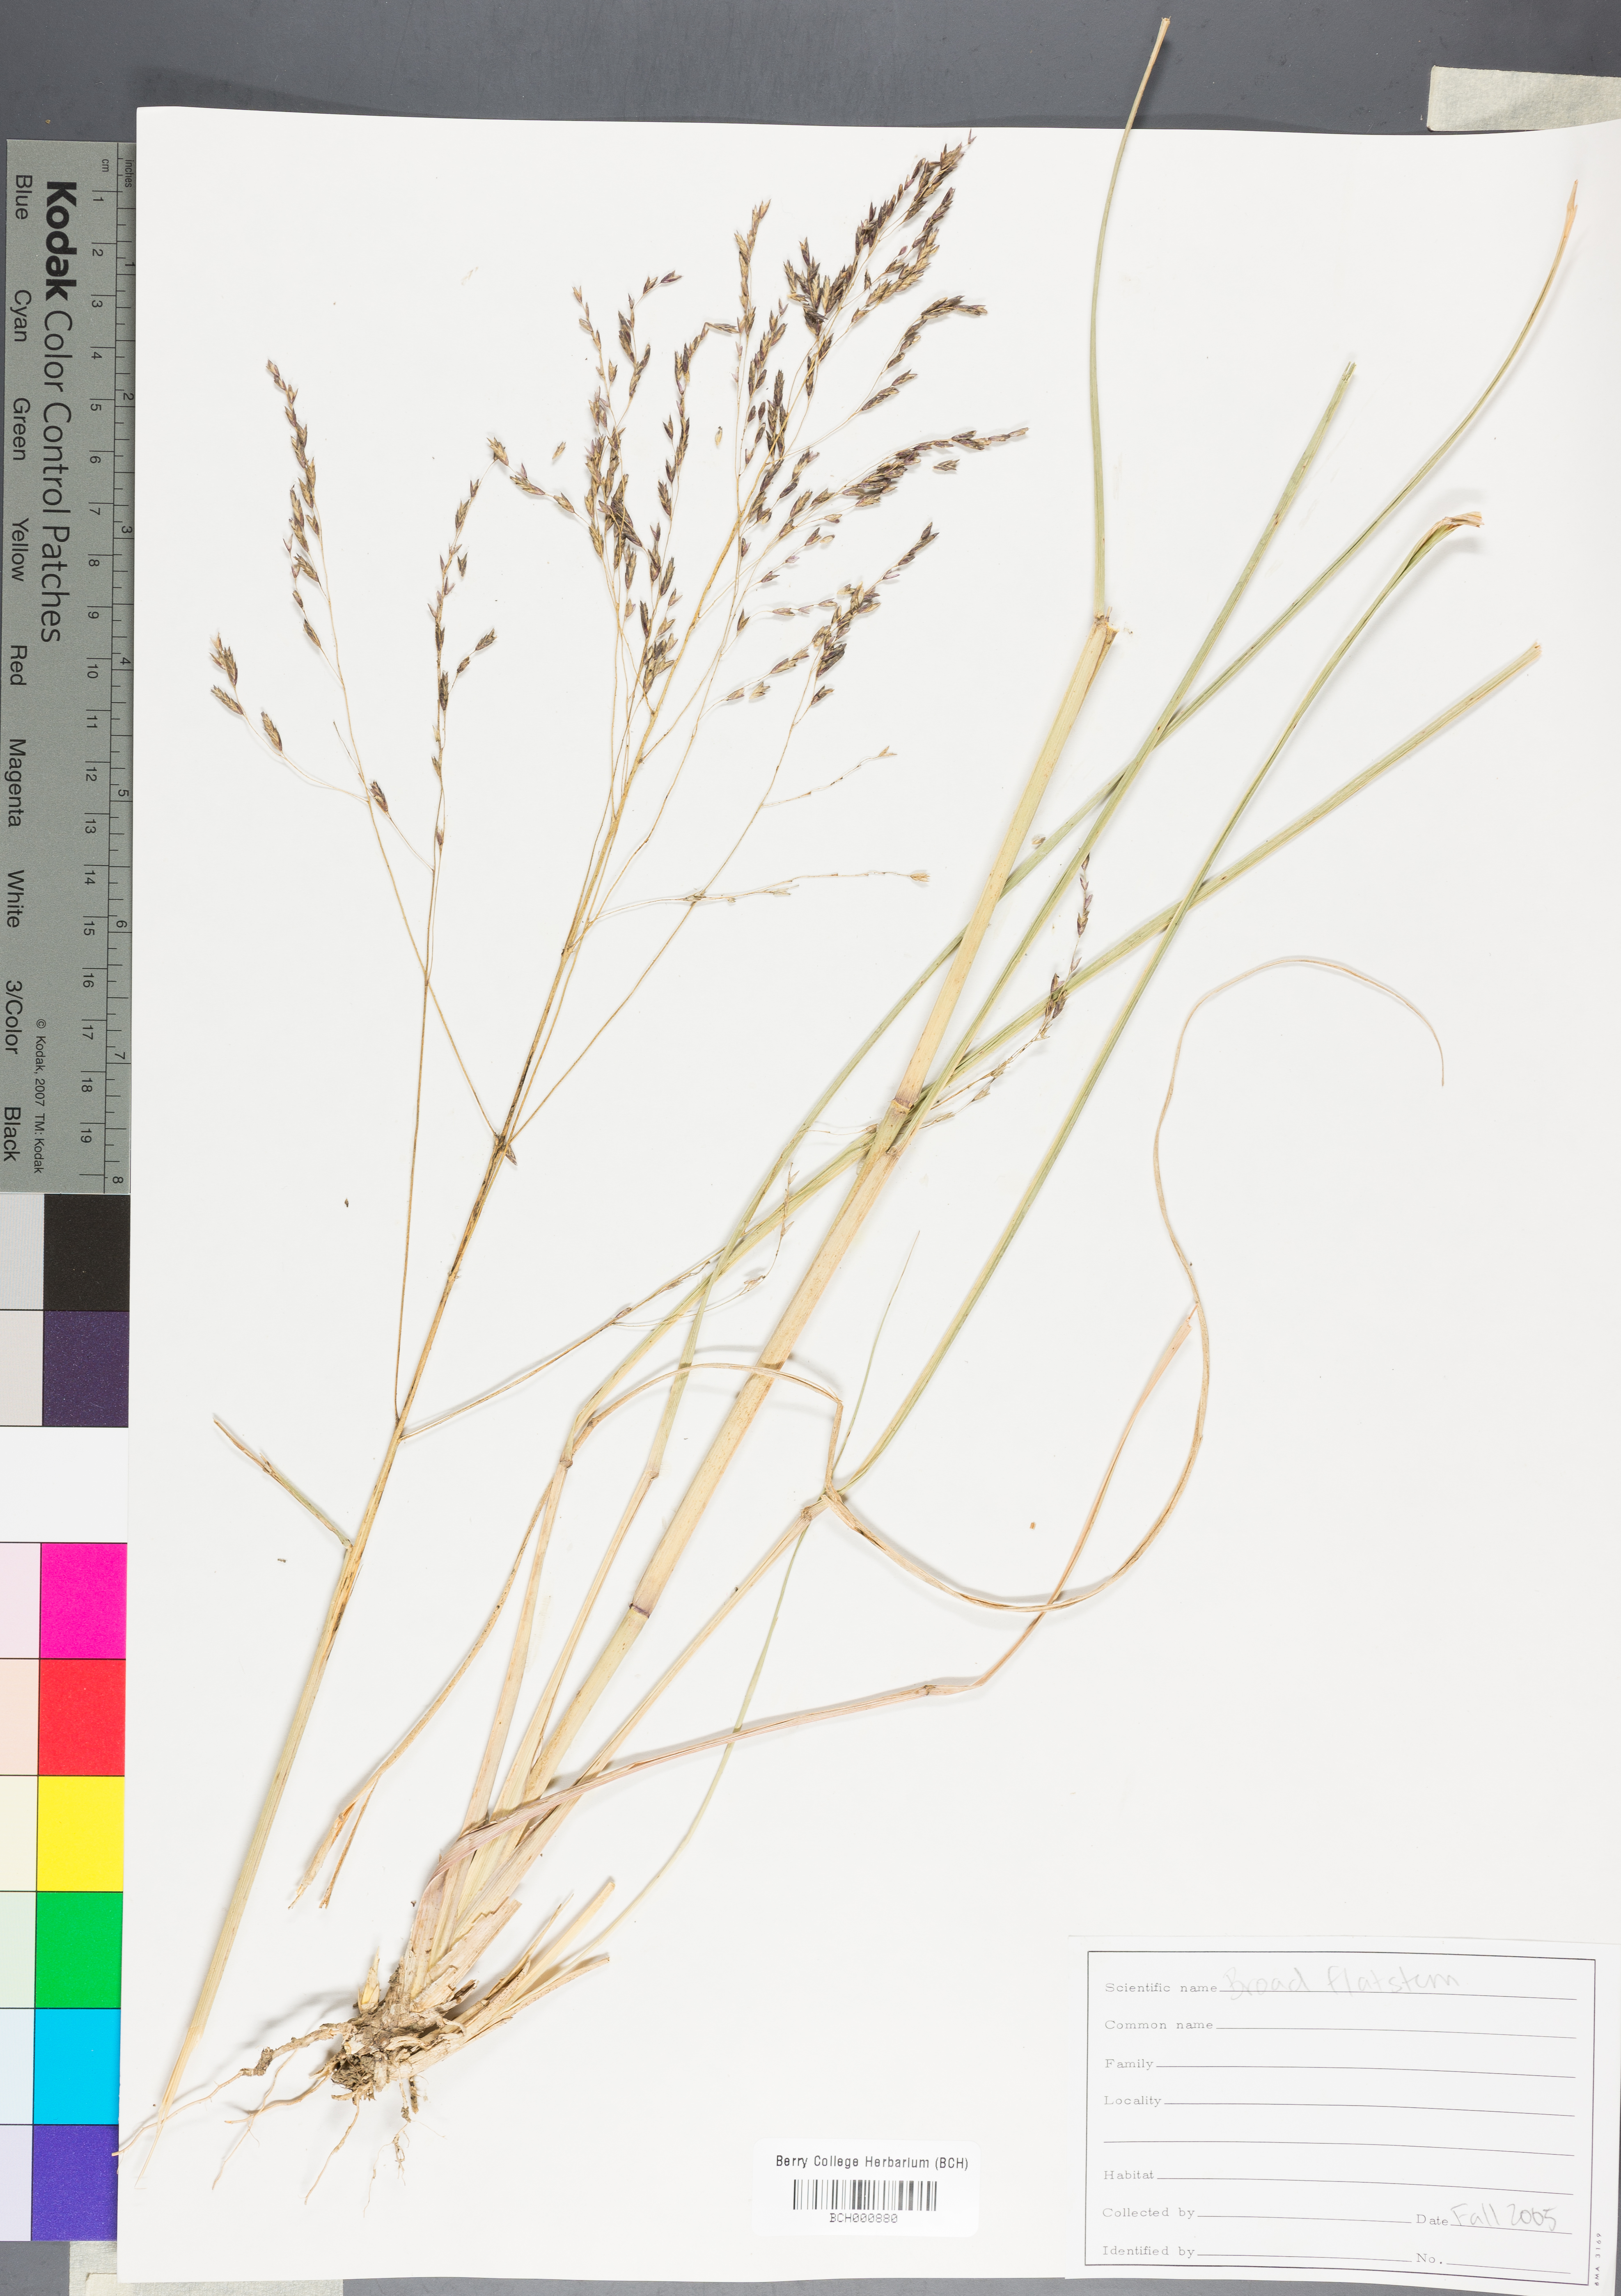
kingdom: Plantae
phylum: Tracheophyta
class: Magnoliopsida
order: Lamiales
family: Acanthaceae
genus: Adhatoda
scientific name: Adhatoda
